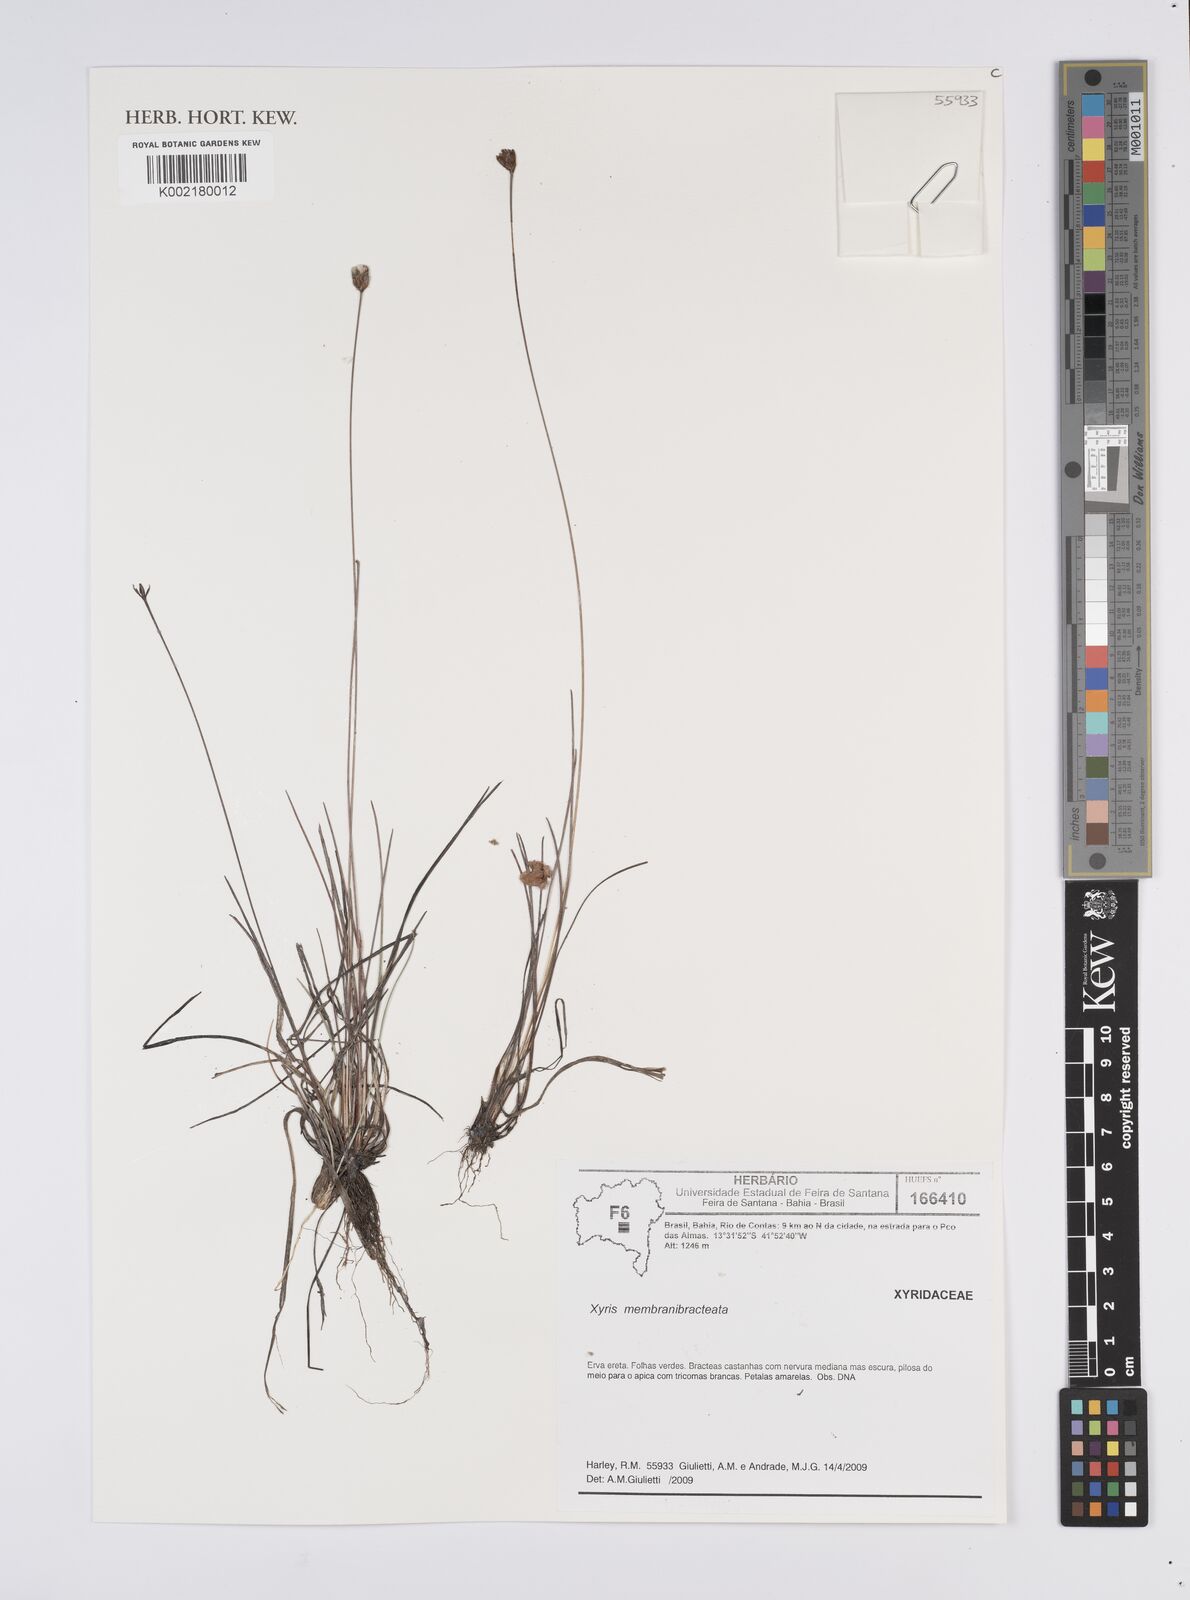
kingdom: Plantae
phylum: Tracheophyta
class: Liliopsida
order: Poales
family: Xyridaceae
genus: Xyris
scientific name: Xyris membranibracteata
